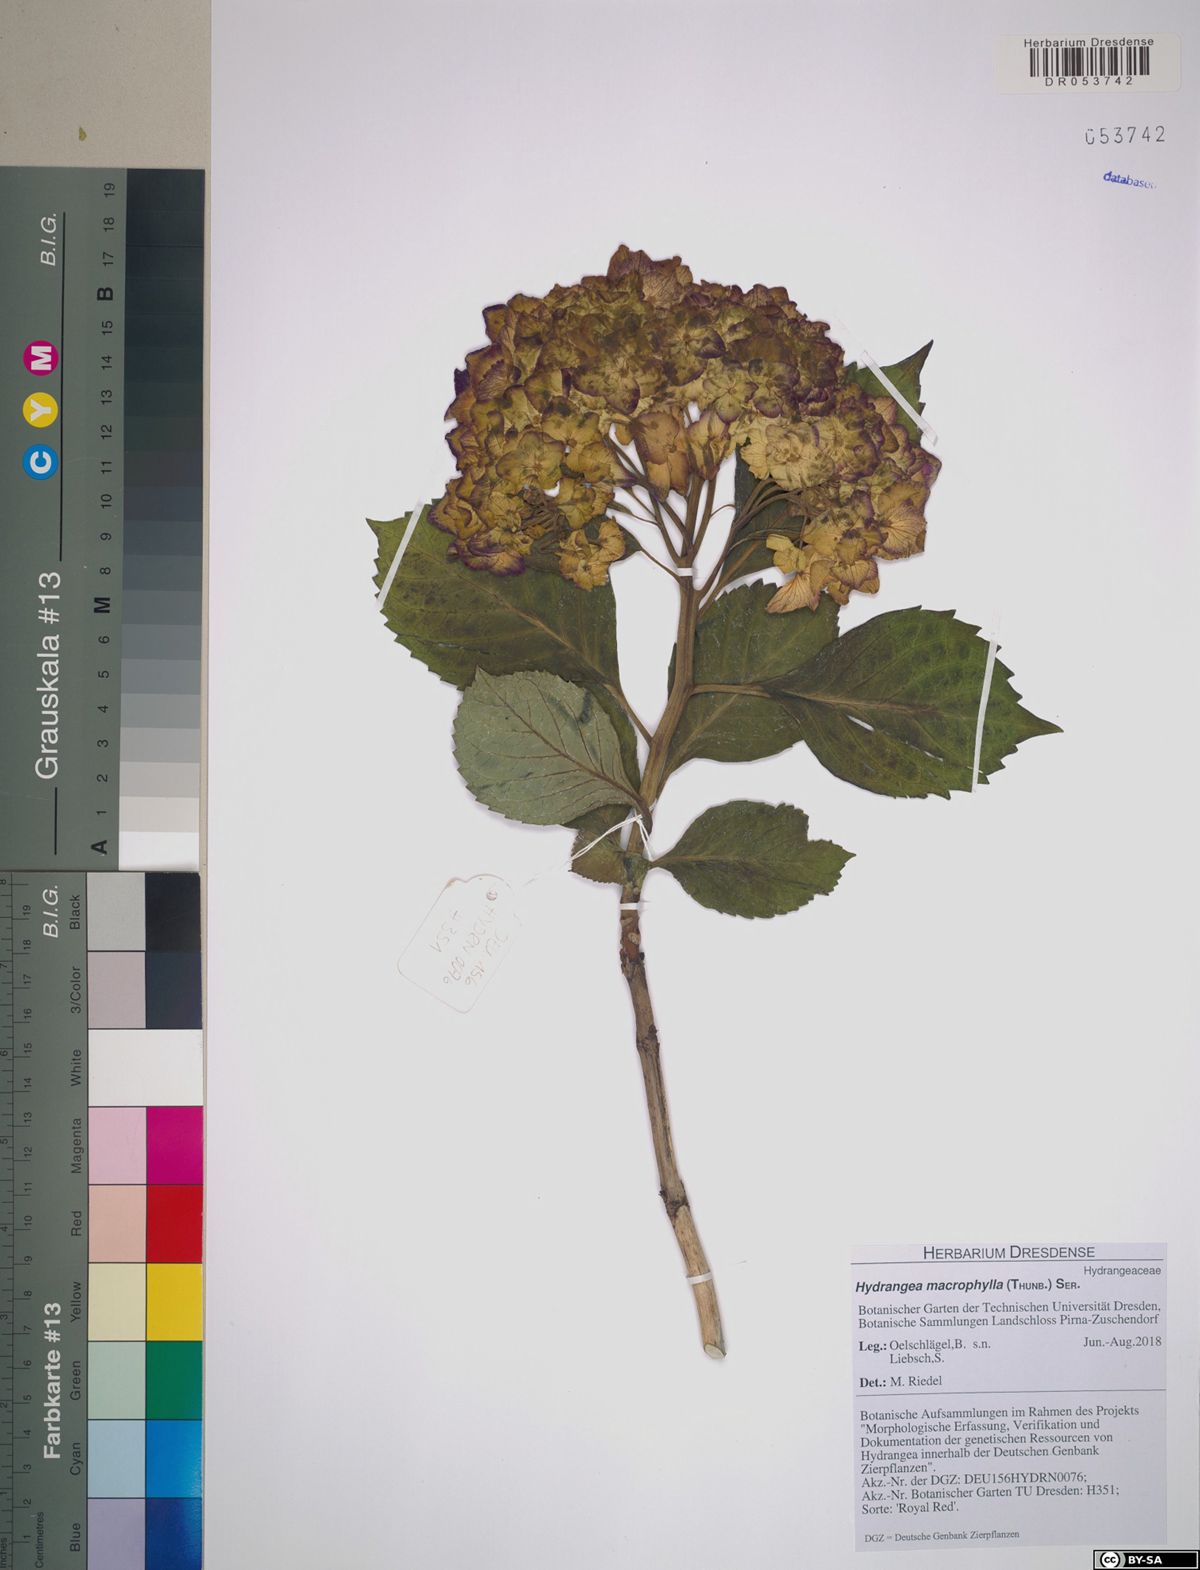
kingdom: Plantae
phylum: Tracheophyta
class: Magnoliopsida
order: Cornales
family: Hydrangeaceae
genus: Hydrangea
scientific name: Hydrangea macrophylla
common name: Hydrangea
